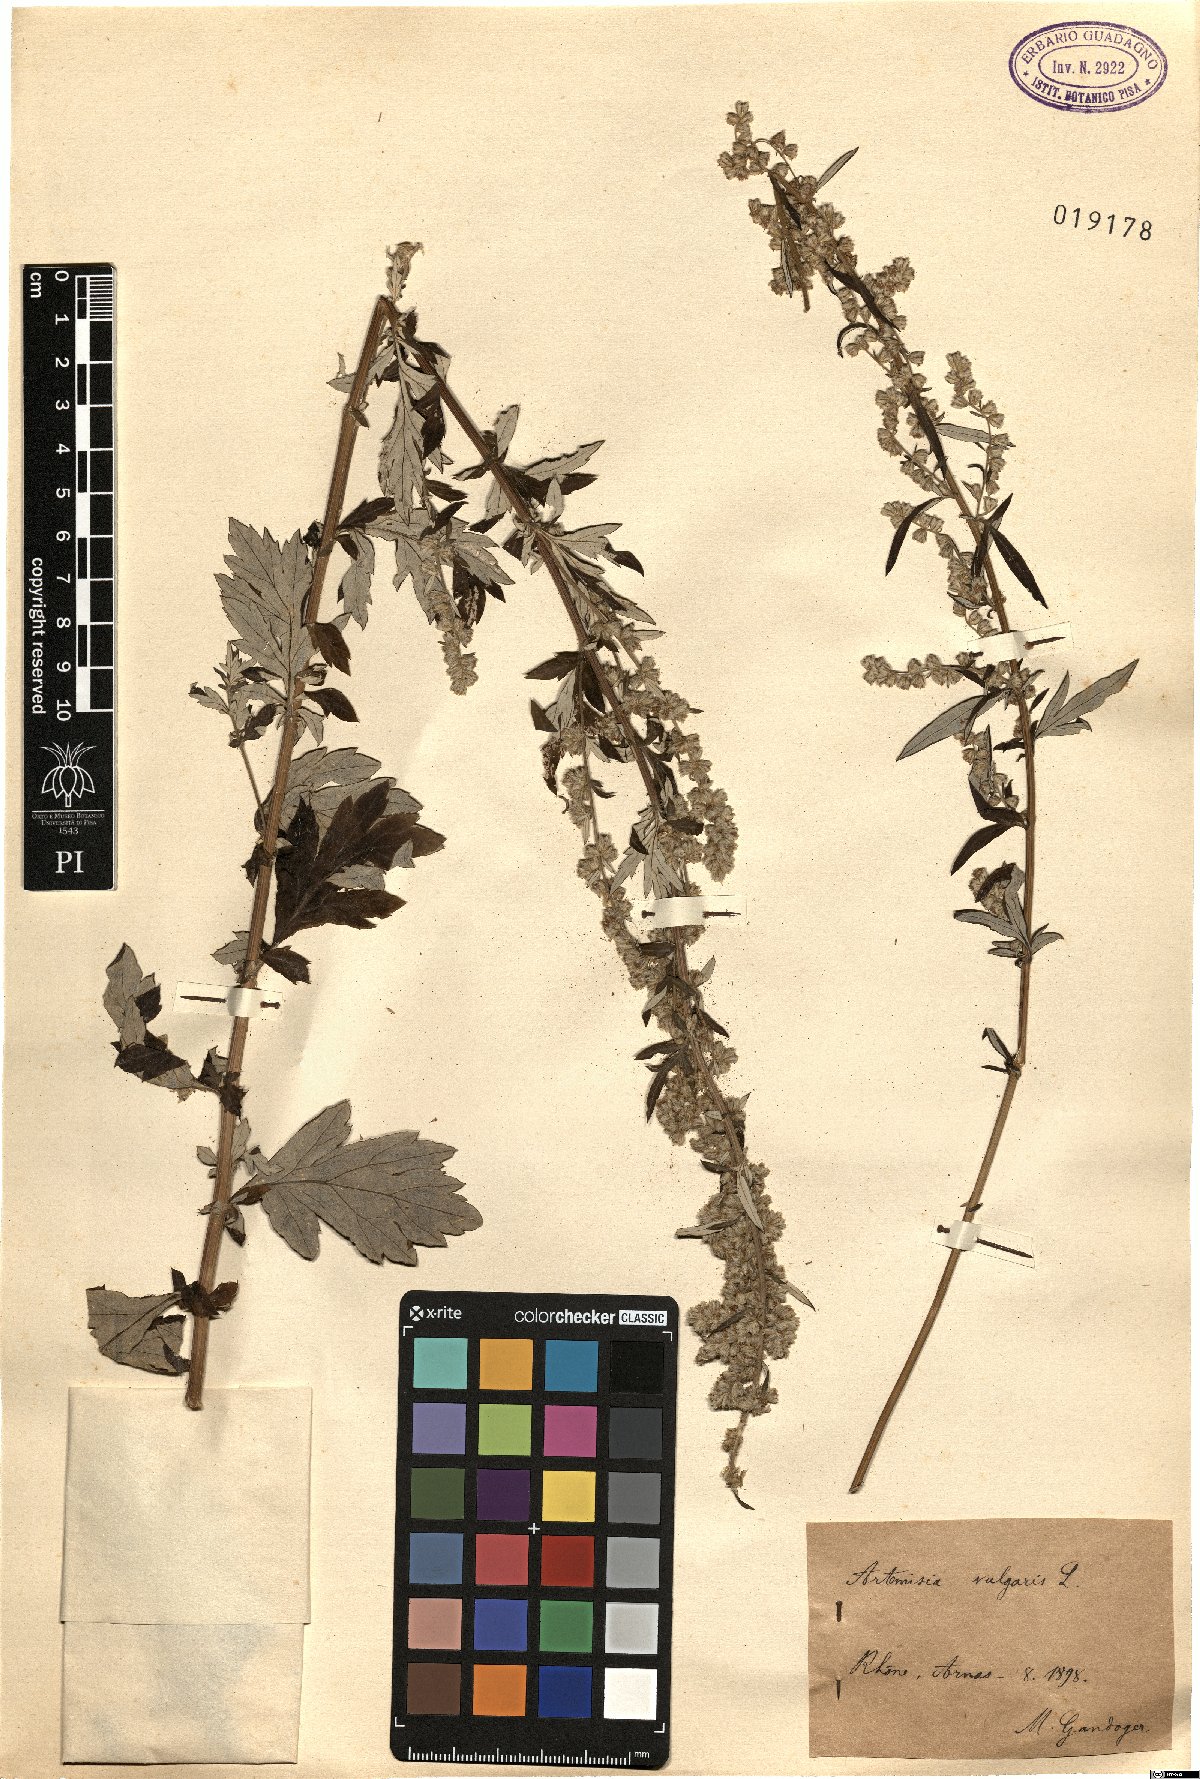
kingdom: Plantae
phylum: Tracheophyta
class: Magnoliopsida
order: Asterales
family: Asteraceae
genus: Artemisia
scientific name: Artemisia vulgaris
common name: Mugwort
